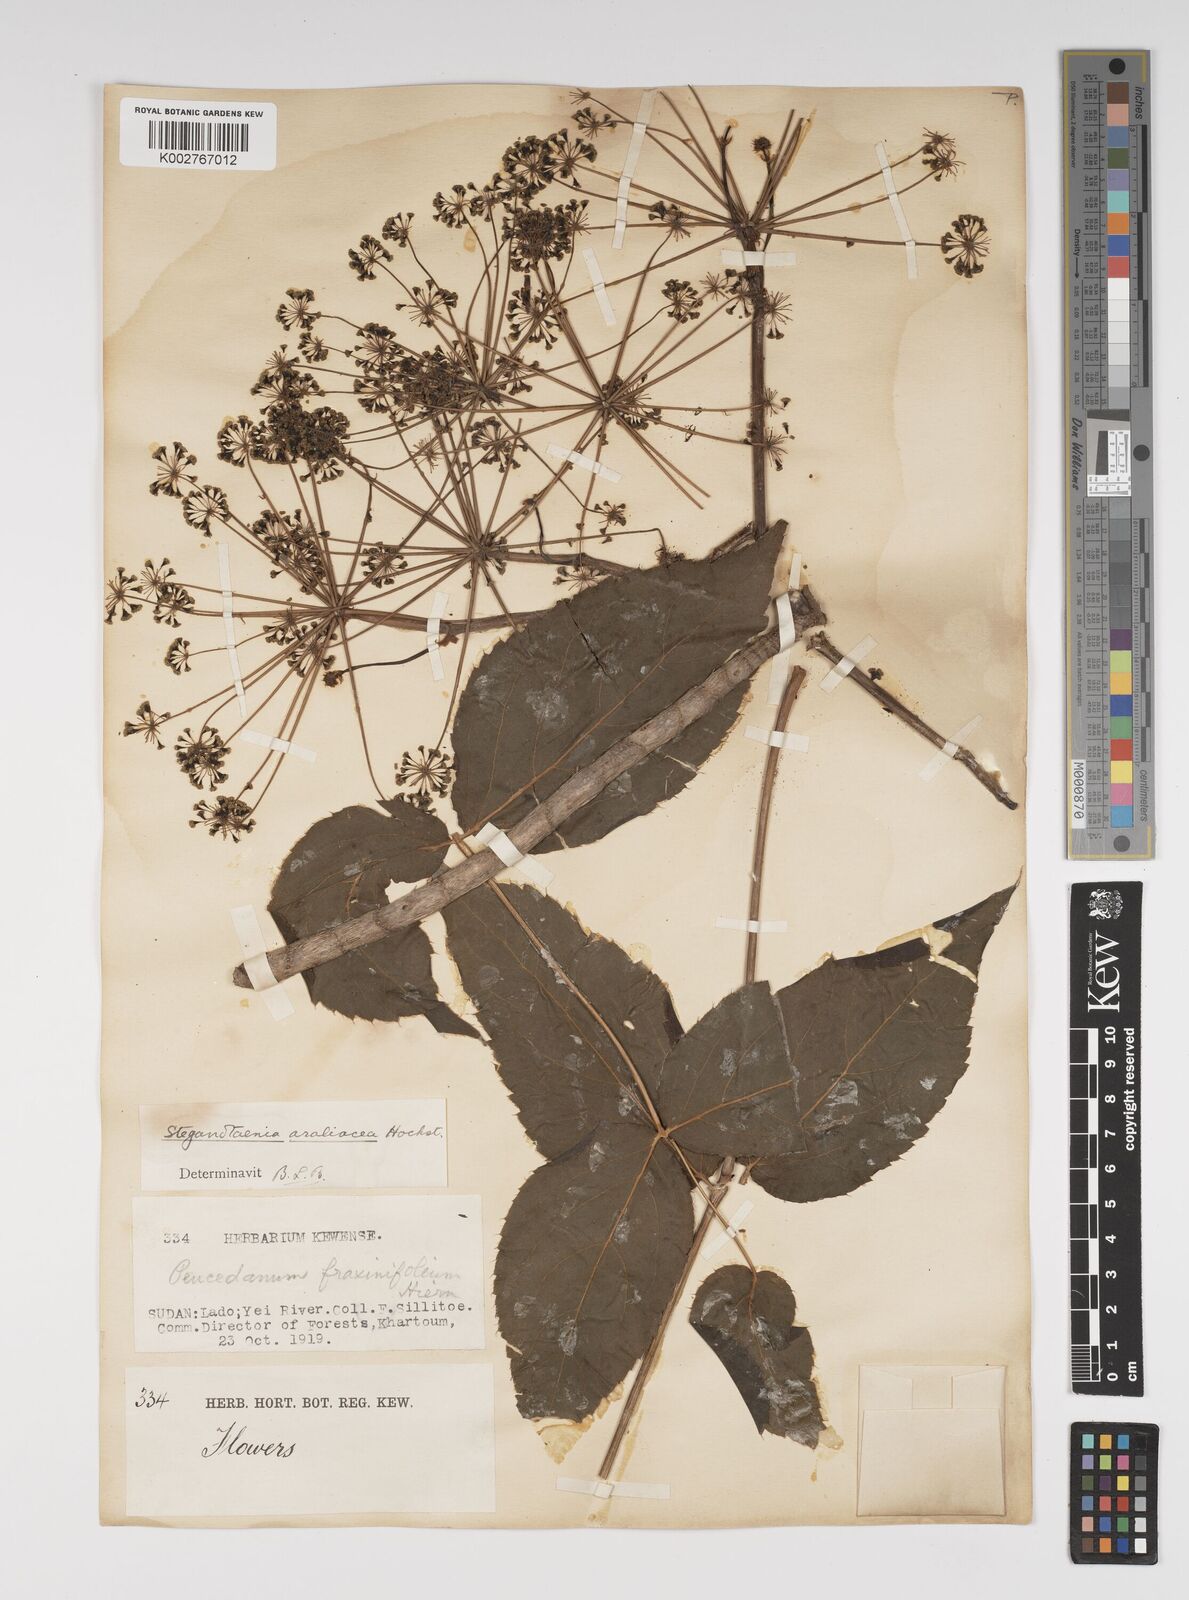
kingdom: Plantae
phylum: Tracheophyta
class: Magnoliopsida
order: Apiales
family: Apiaceae
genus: Steganotaenia
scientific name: Steganotaenia
